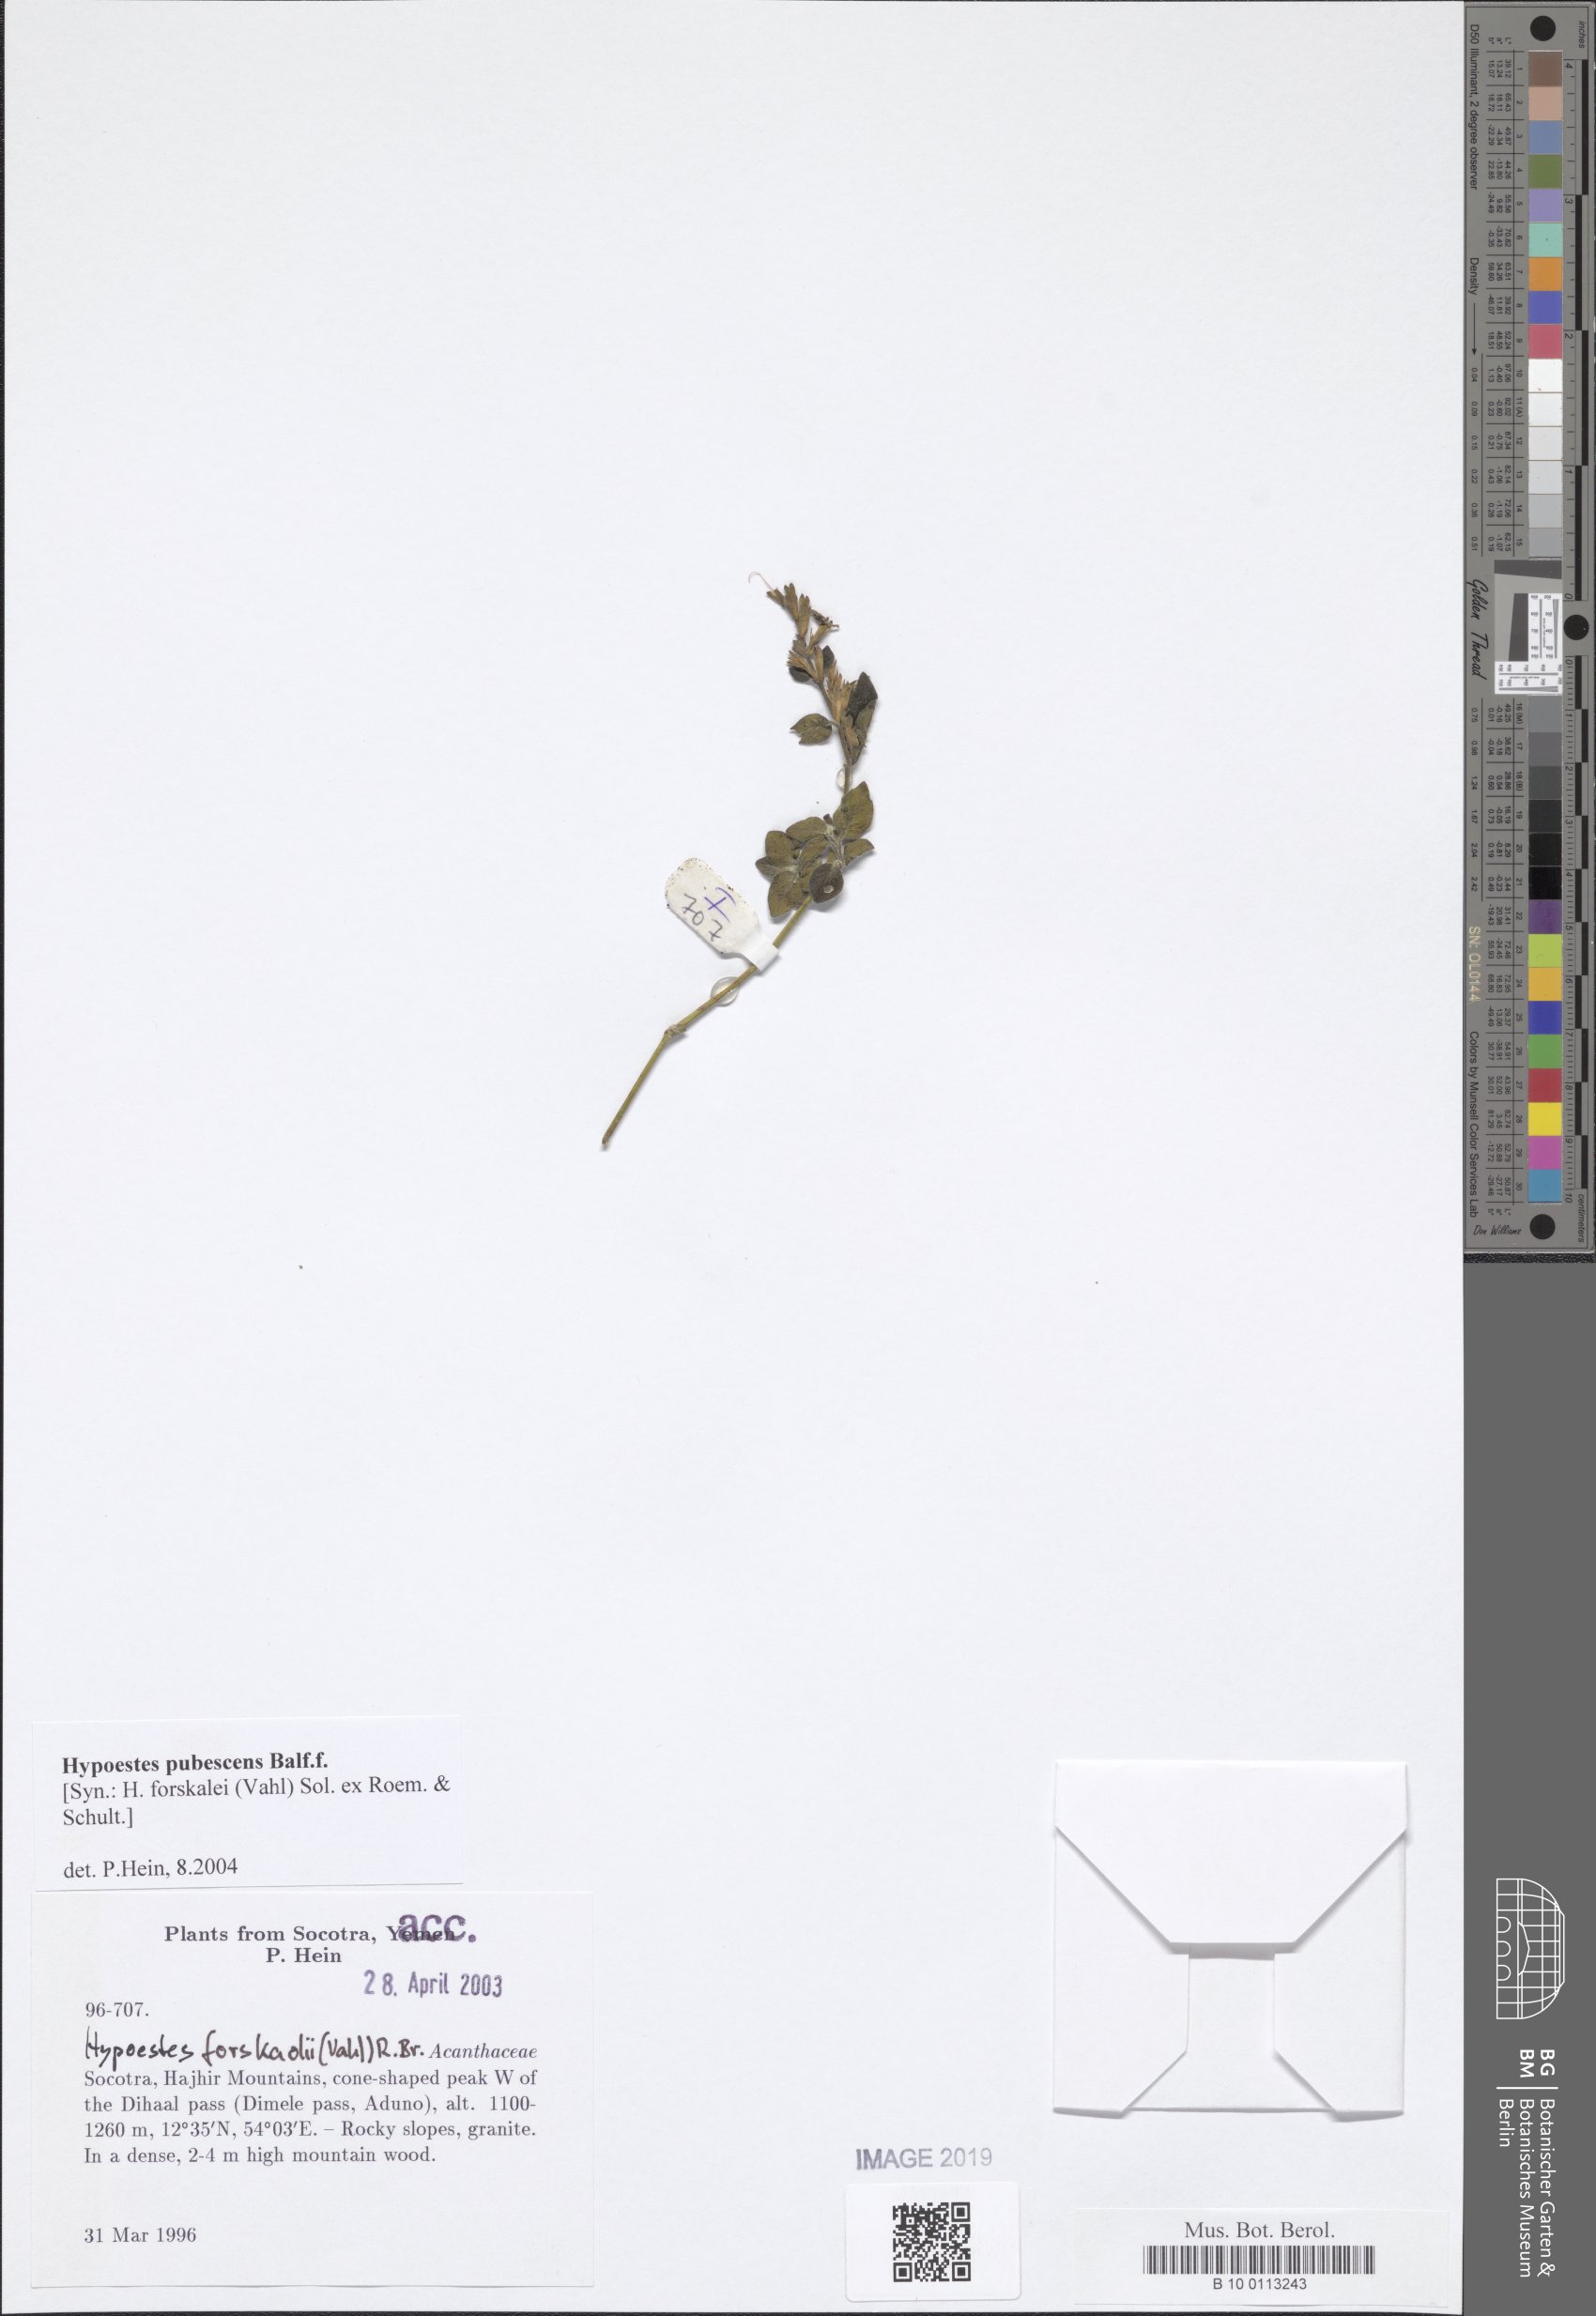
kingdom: Plantae
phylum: Tracheophyta
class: Magnoliopsida
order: Lamiales
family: Acanthaceae
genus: Hypoestes
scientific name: Hypoestes pubescens
